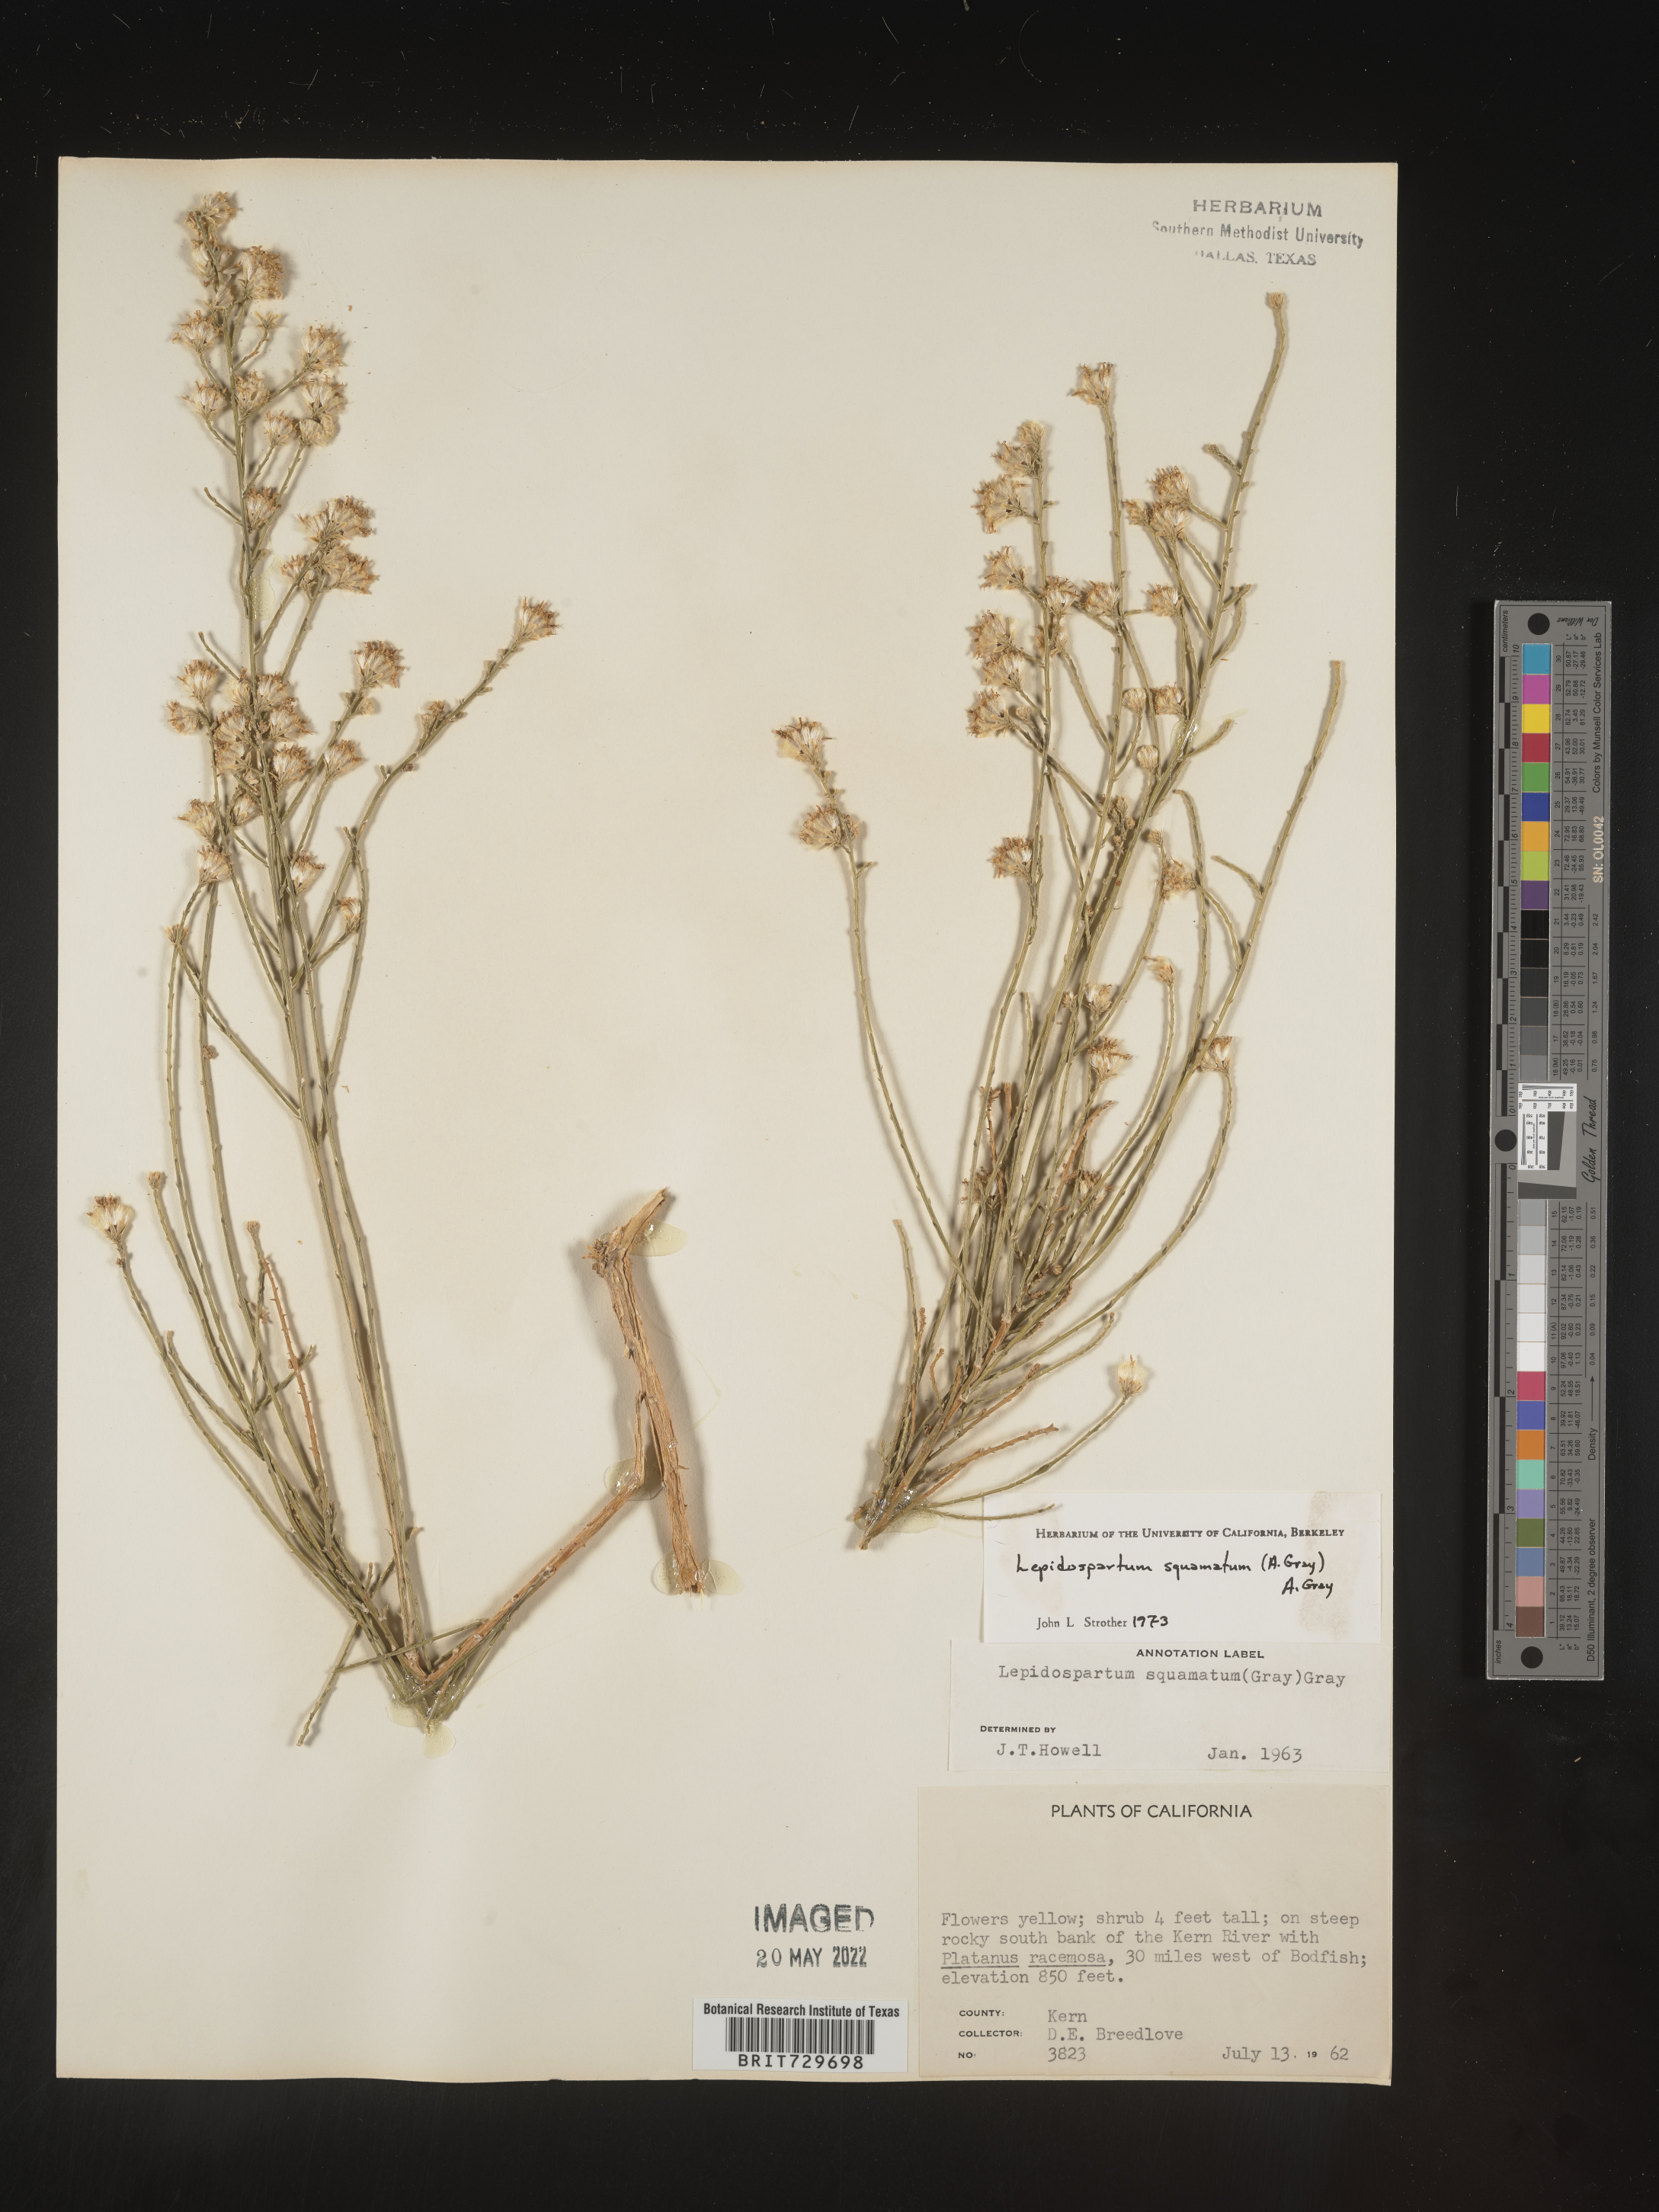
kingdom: Plantae
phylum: Tracheophyta
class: Magnoliopsida
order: Asterales
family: Asteraceae
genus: Lepidospartum
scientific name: Lepidospartum squamatum
